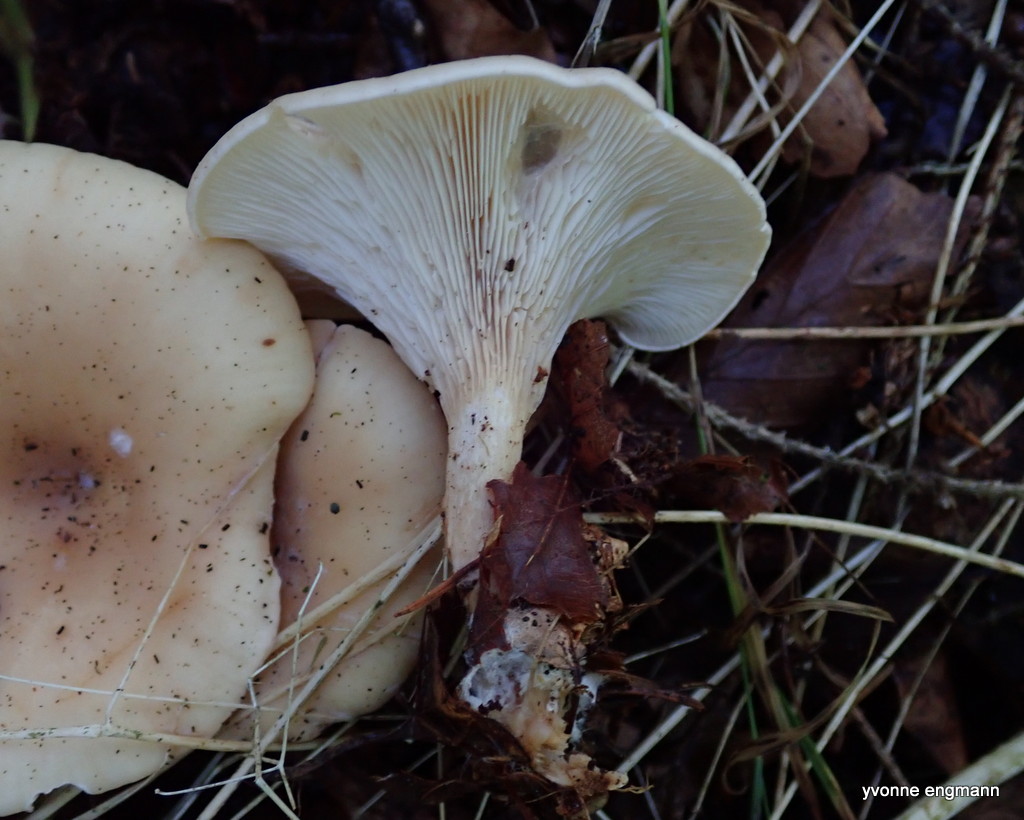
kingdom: Fungi
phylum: Basidiomycota
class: Agaricomycetes
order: Agaricales
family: Tricholomataceae
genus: Paralepista
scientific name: Paralepista flaccida
